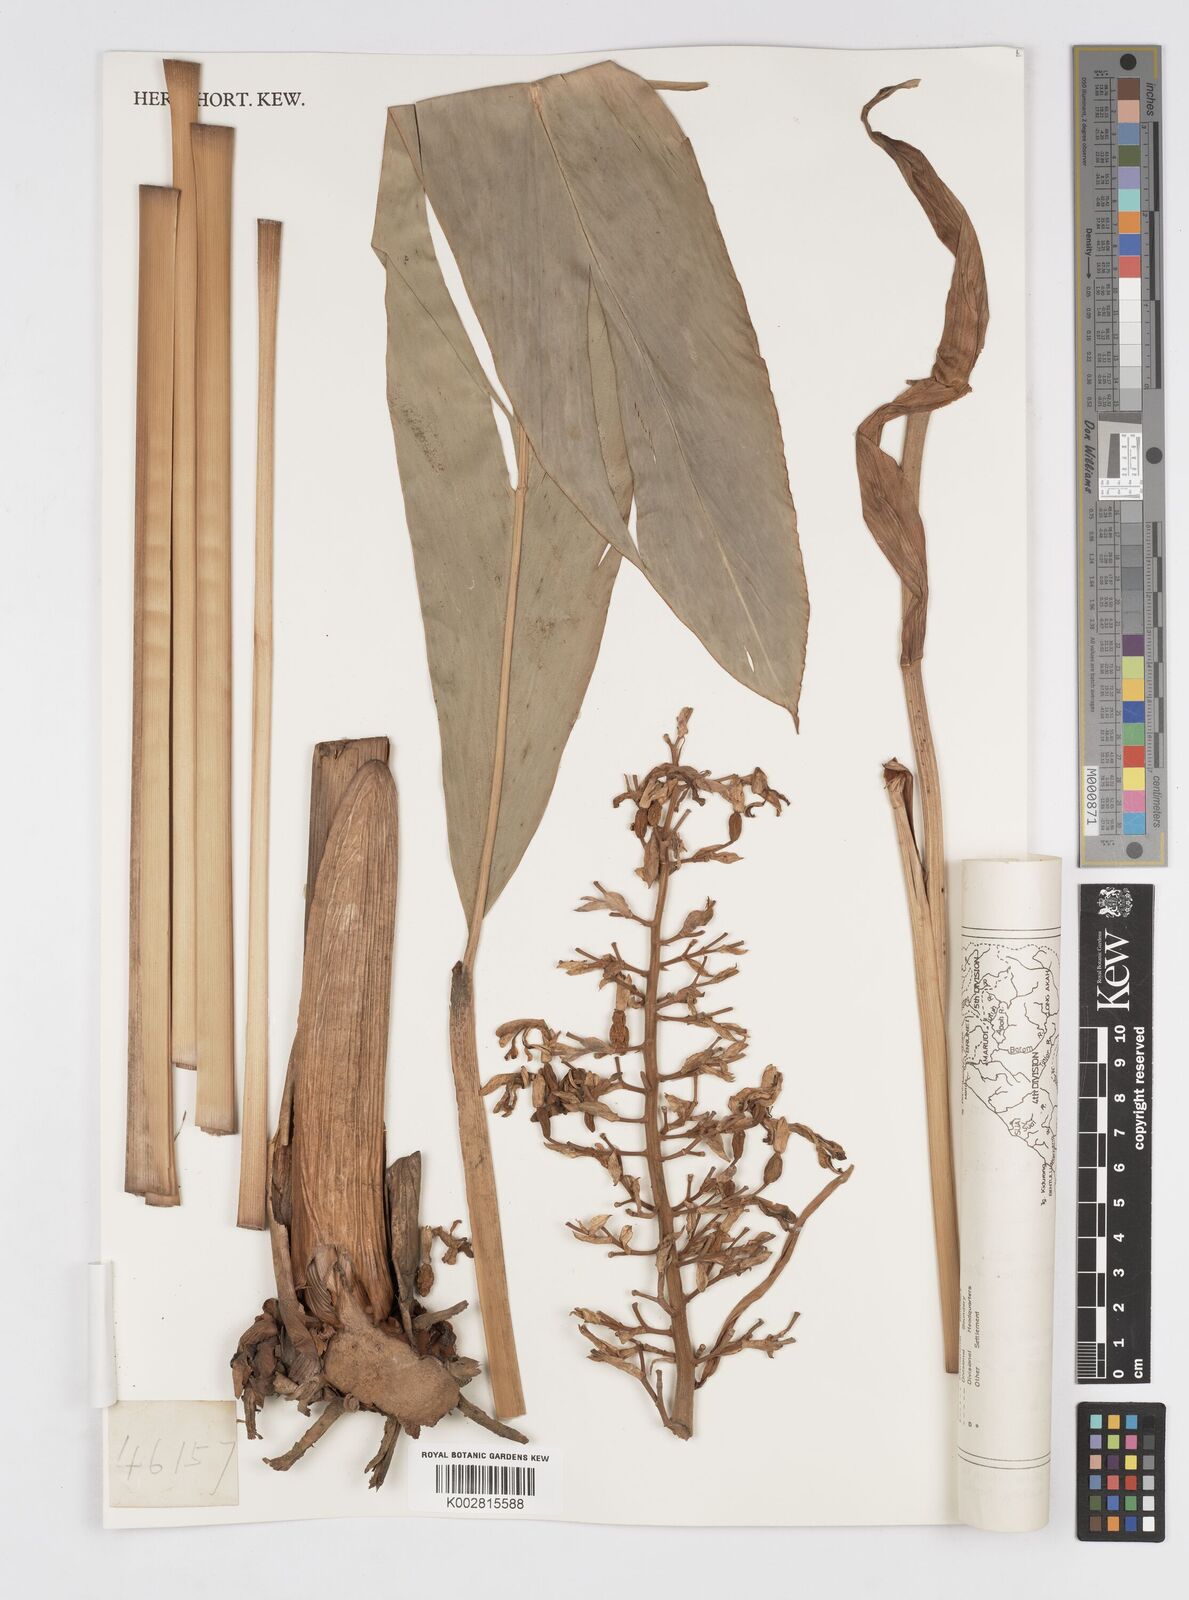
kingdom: Plantae
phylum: Tracheophyta
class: Liliopsida
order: Zingiberales
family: Zingiberaceae
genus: Alpinia
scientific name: Alpinia galanga
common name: Siamese-ginger
